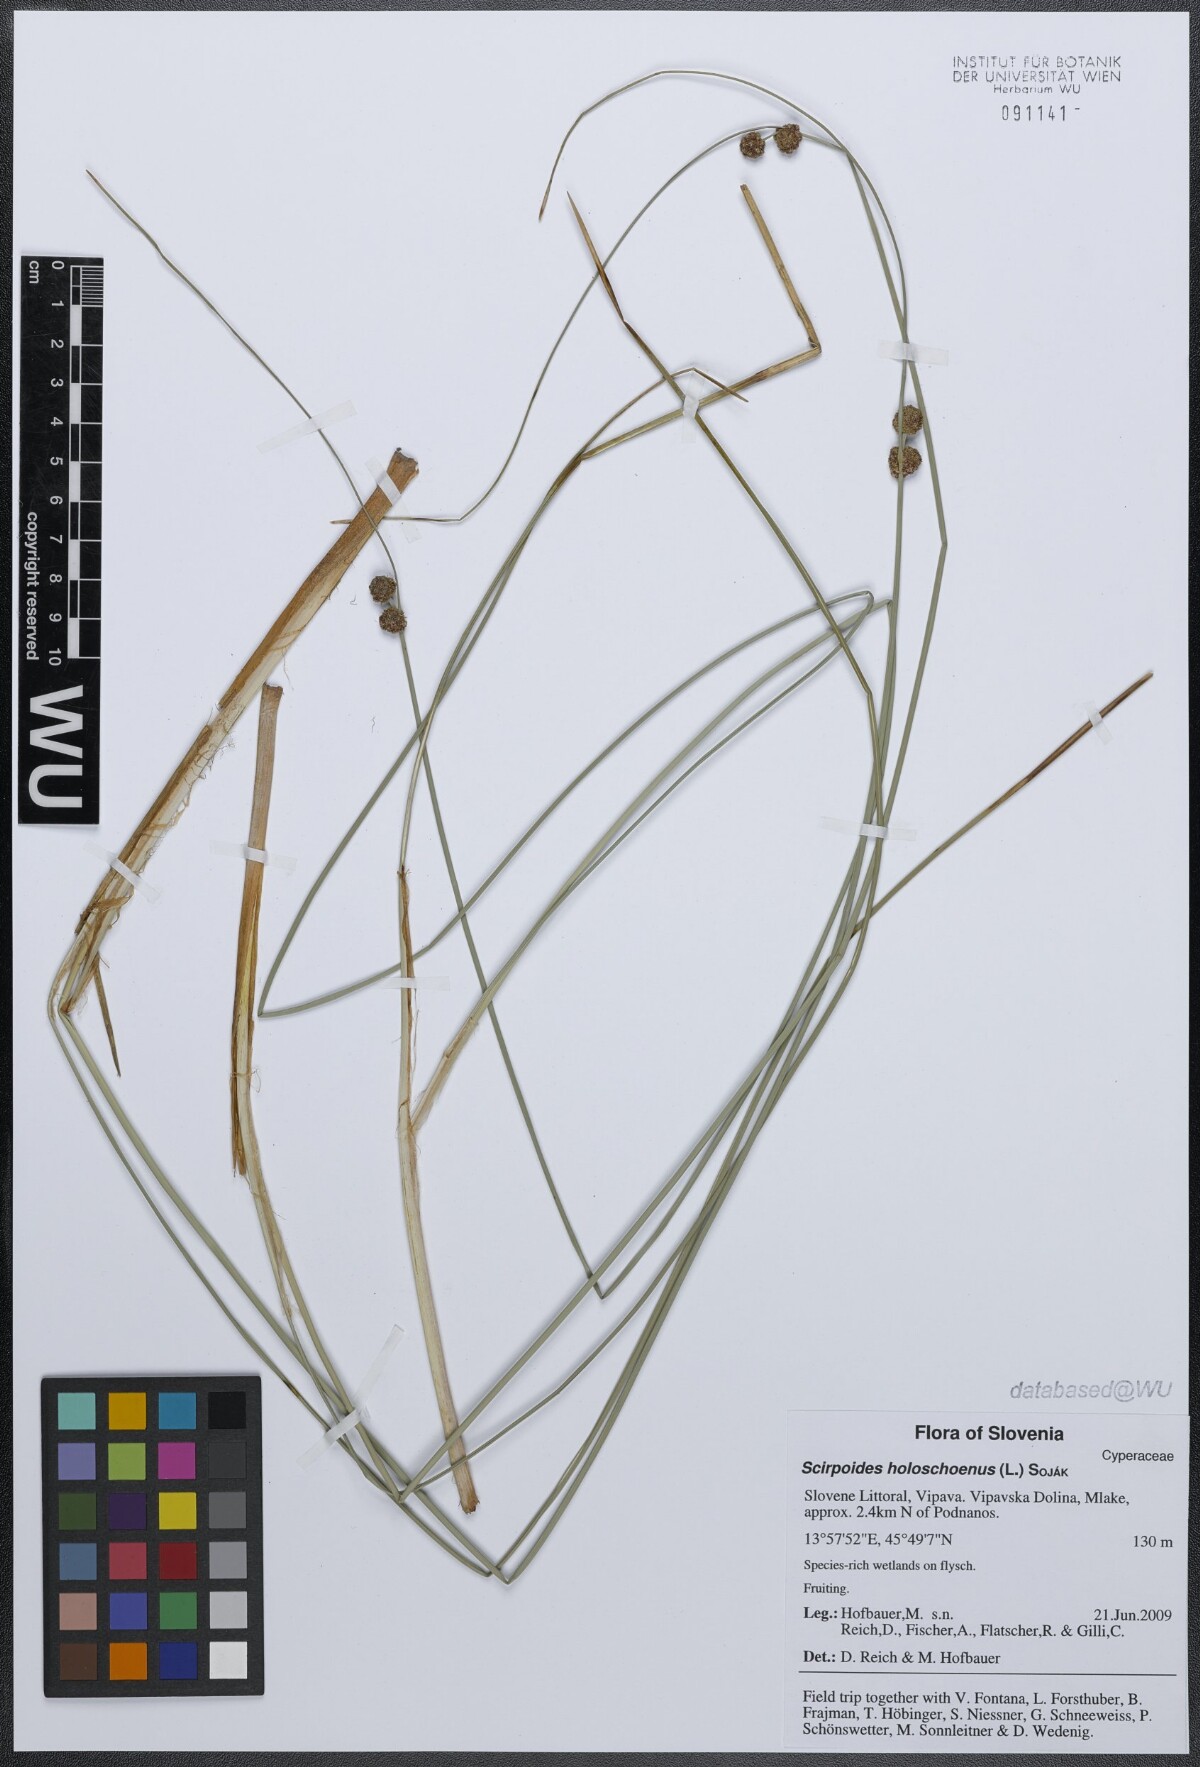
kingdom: Plantae
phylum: Tracheophyta
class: Liliopsida
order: Poales
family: Cyperaceae
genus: Scirpoides
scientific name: Scirpoides holoschoenus
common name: Round-headed club-rush
